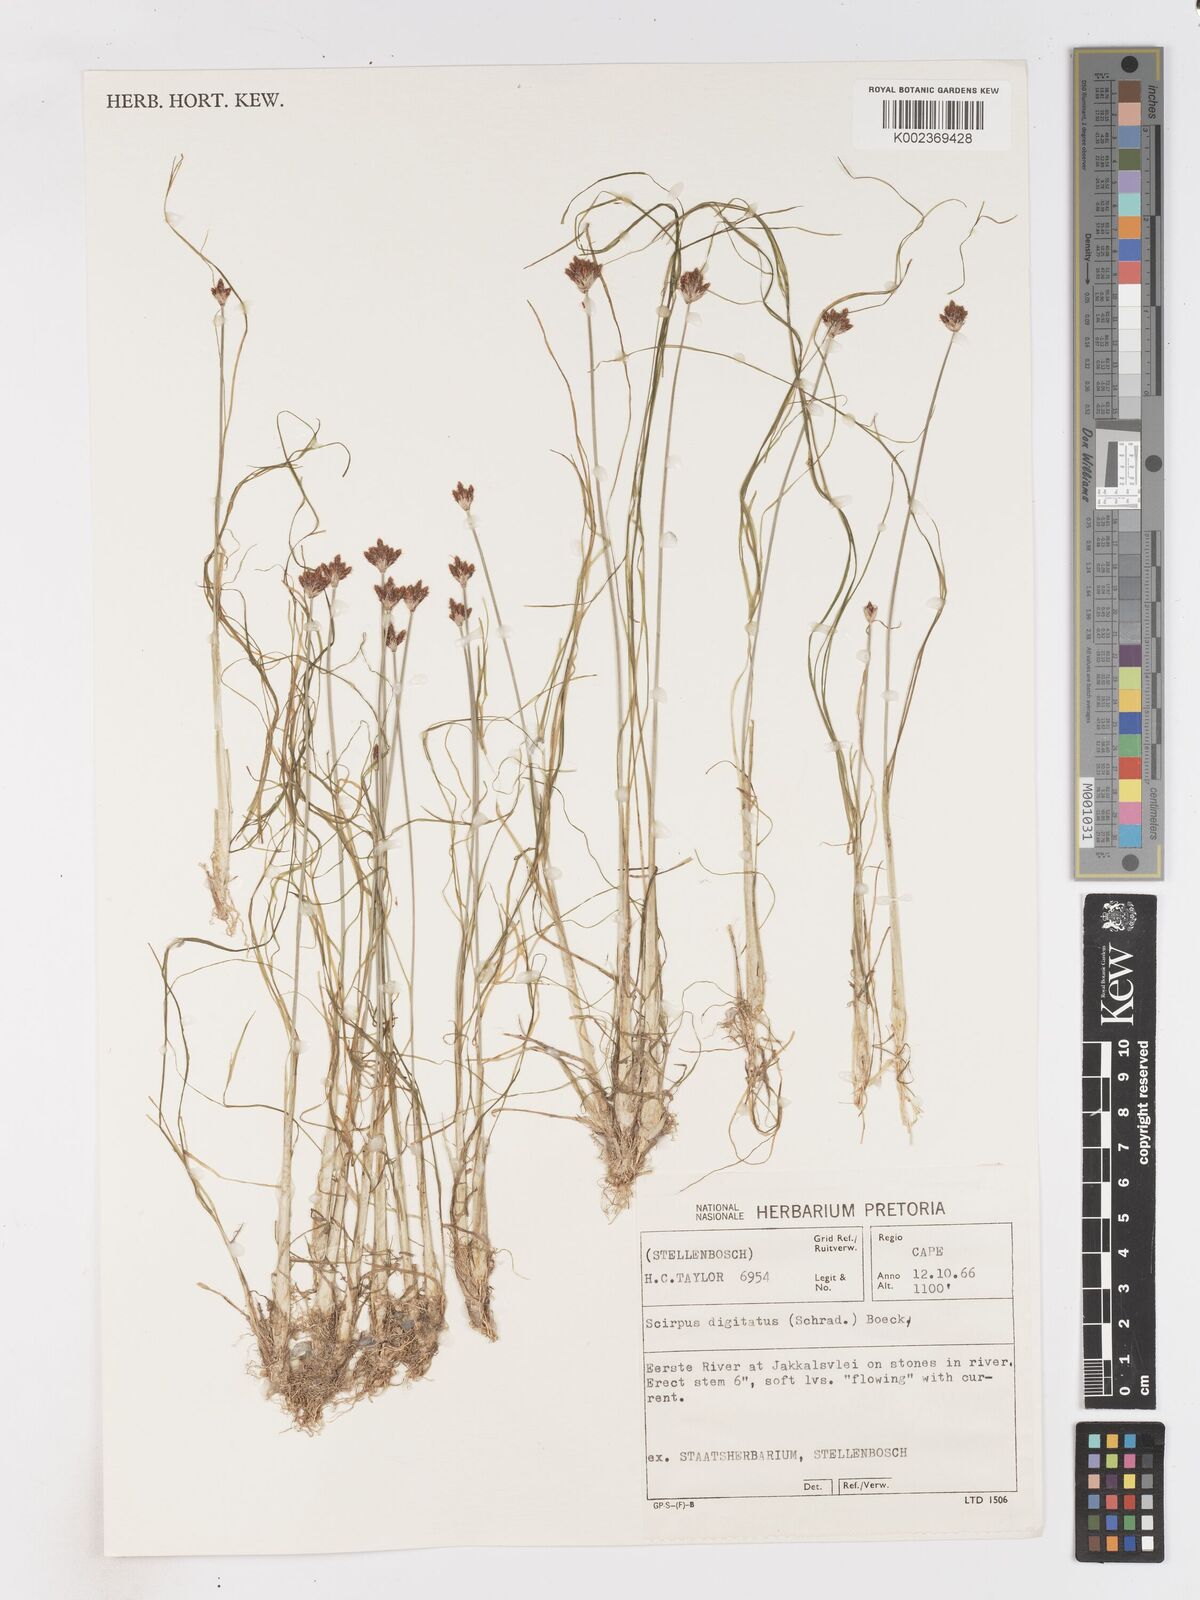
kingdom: Plantae
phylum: Tracheophyta
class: Liliopsida
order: Poales
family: Cyperaceae
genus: Isolepis
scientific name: Isolepis digitata
